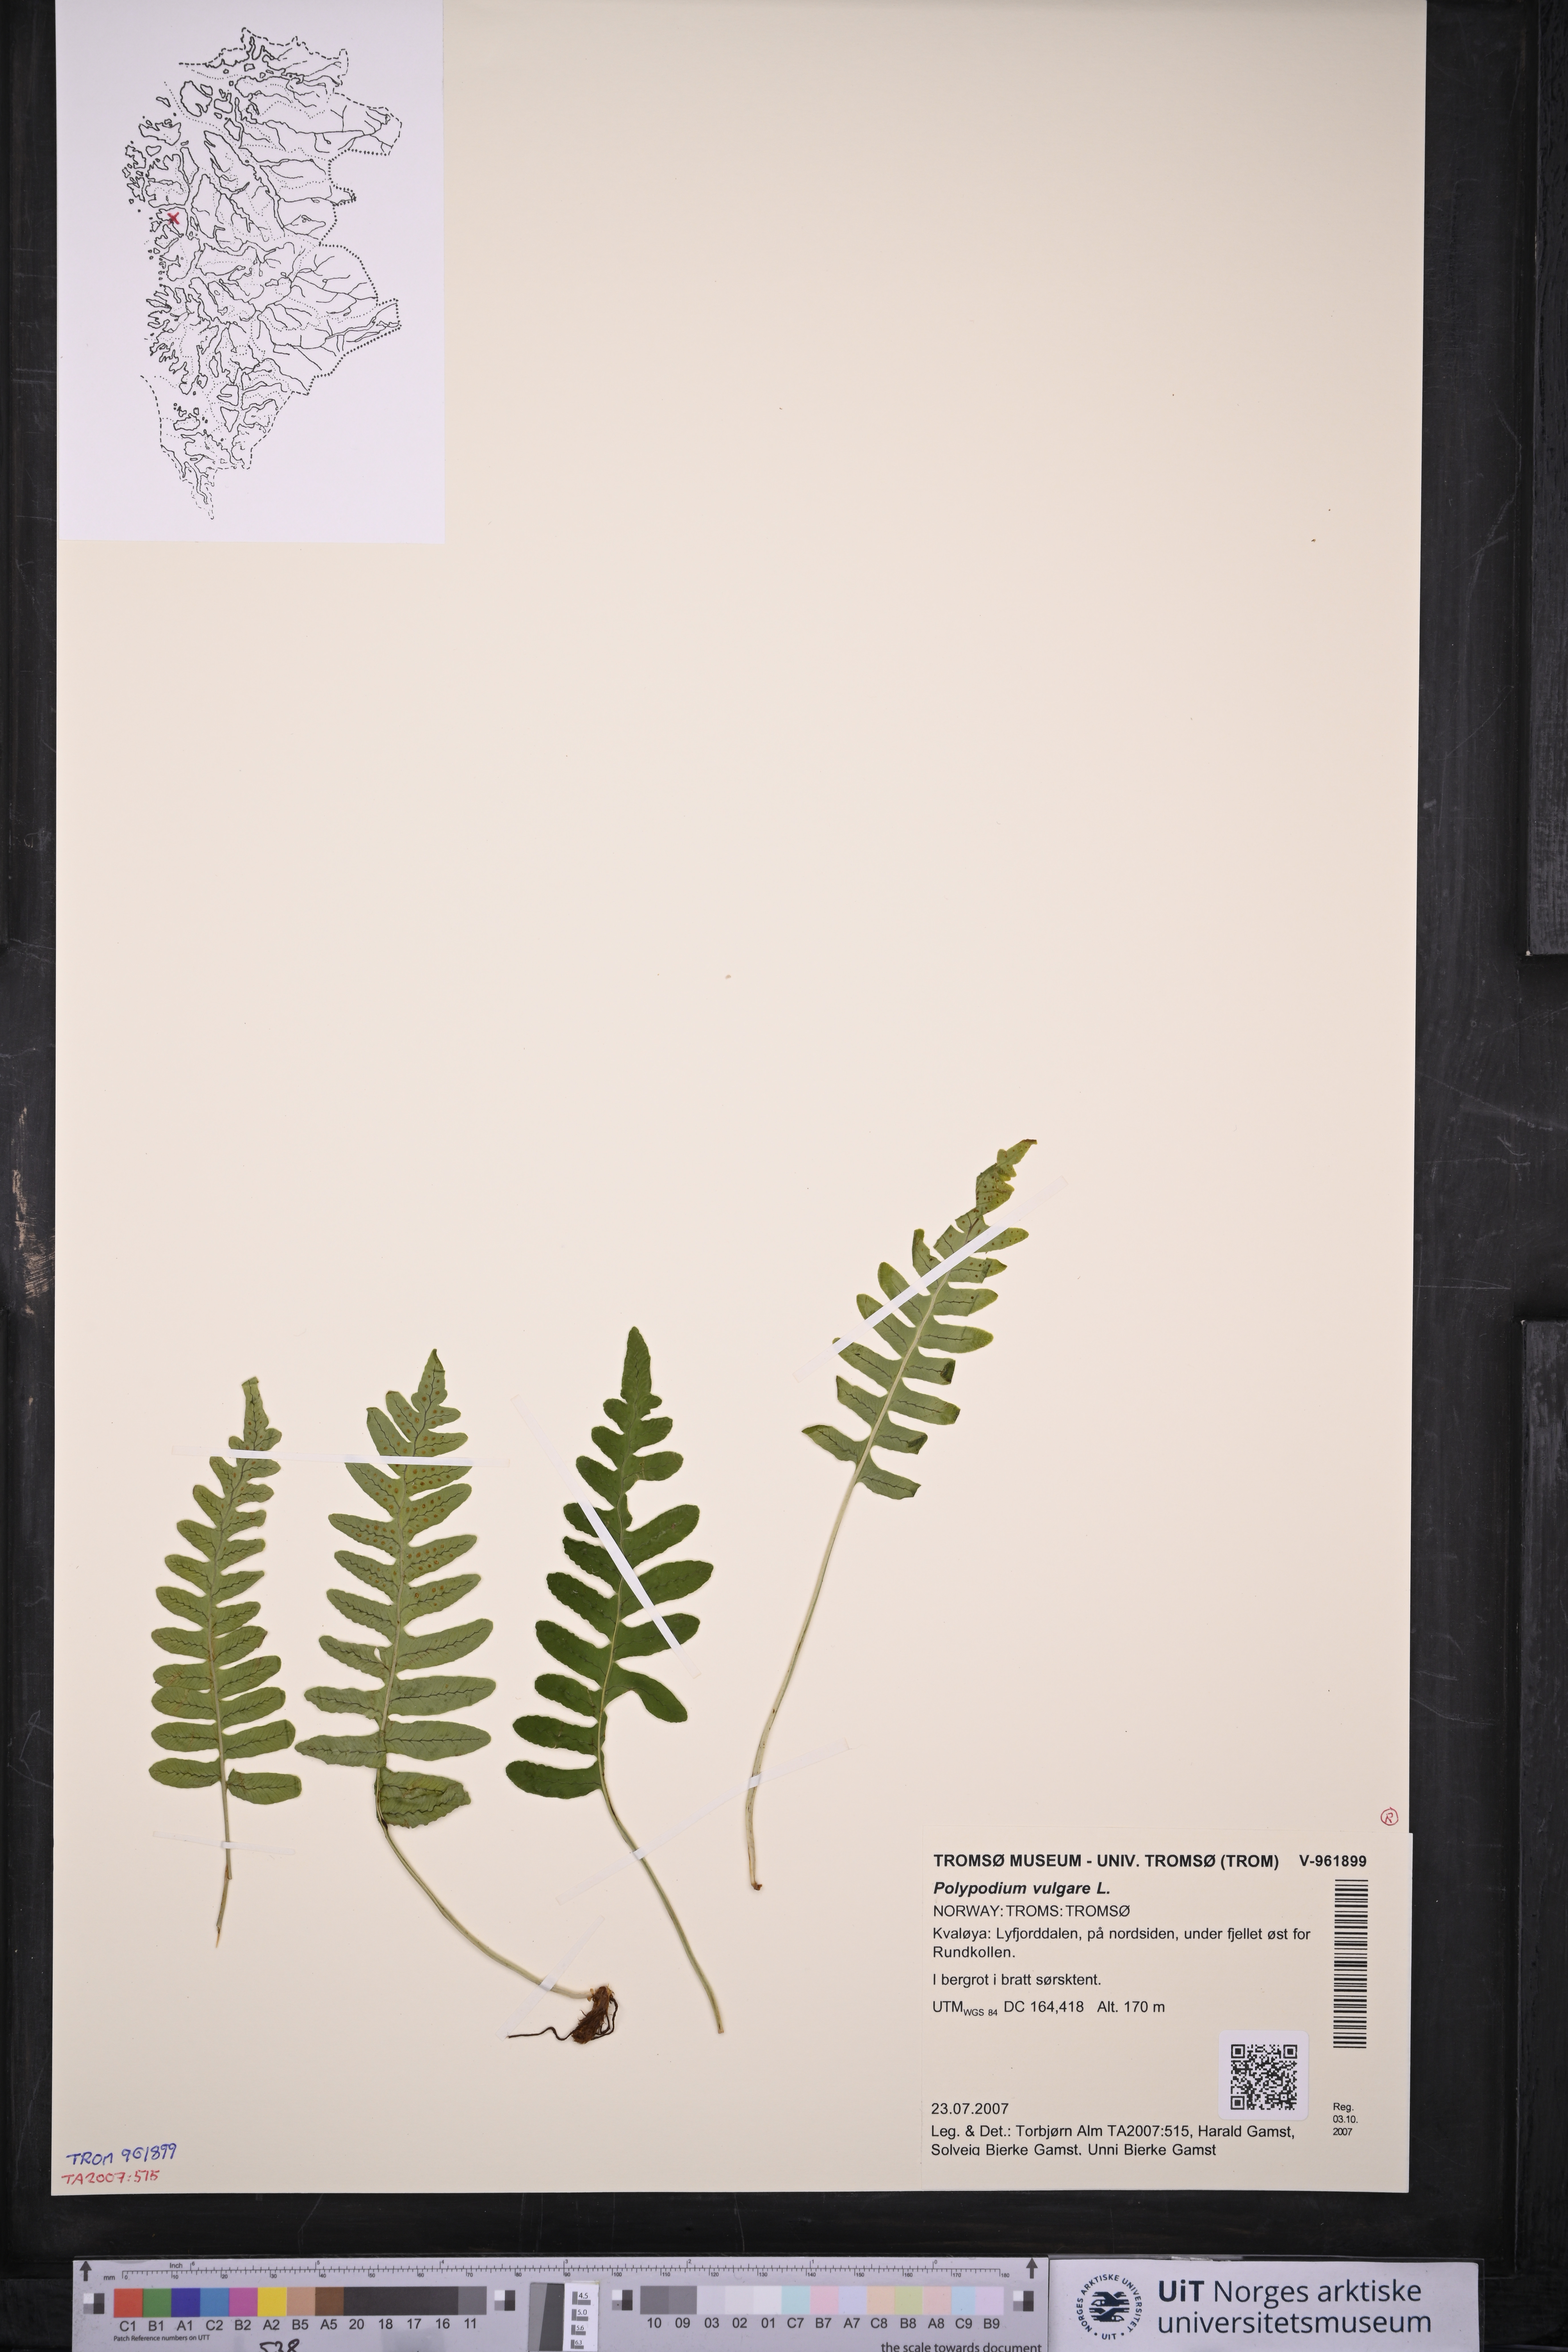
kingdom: Plantae
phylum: Tracheophyta
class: Polypodiopsida
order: Polypodiales
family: Polypodiaceae
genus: Polypodium
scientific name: Polypodium vulgare
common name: Common polypody
